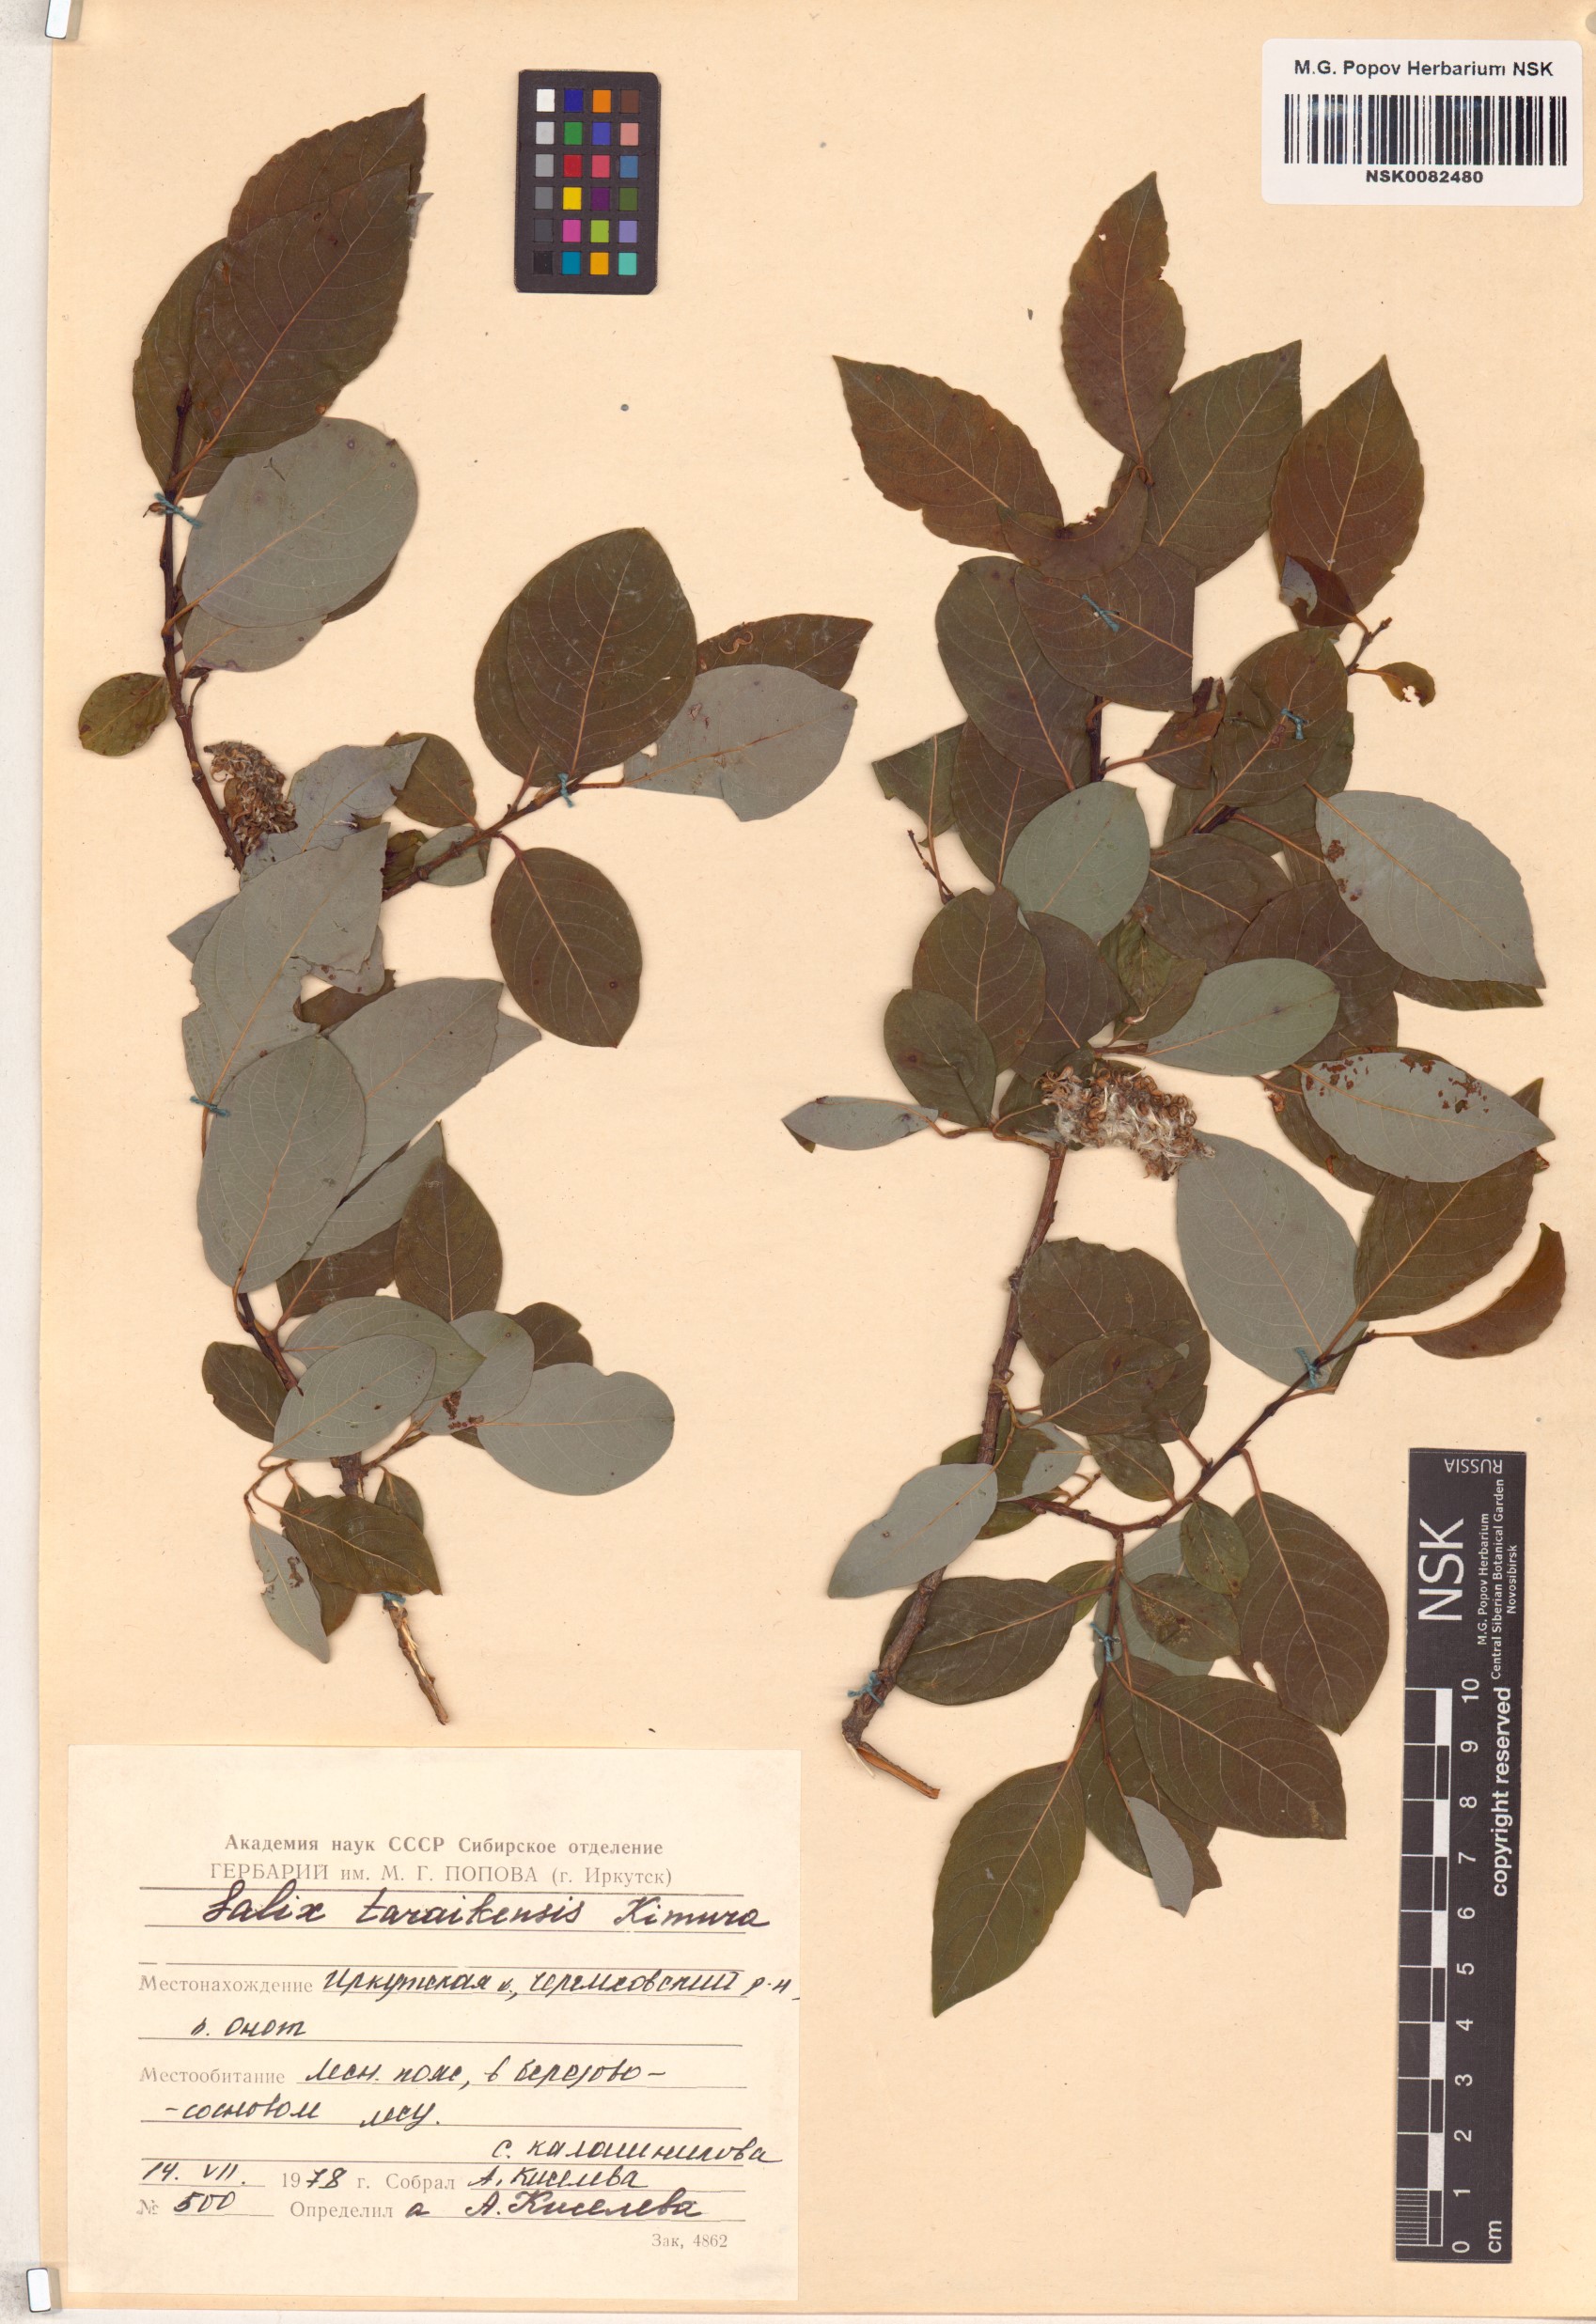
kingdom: Plantae
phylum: Tracheophyta
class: Magnoliopsida
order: Malpighiales
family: Salicaceae
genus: Salix
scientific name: Salix taraikensis
